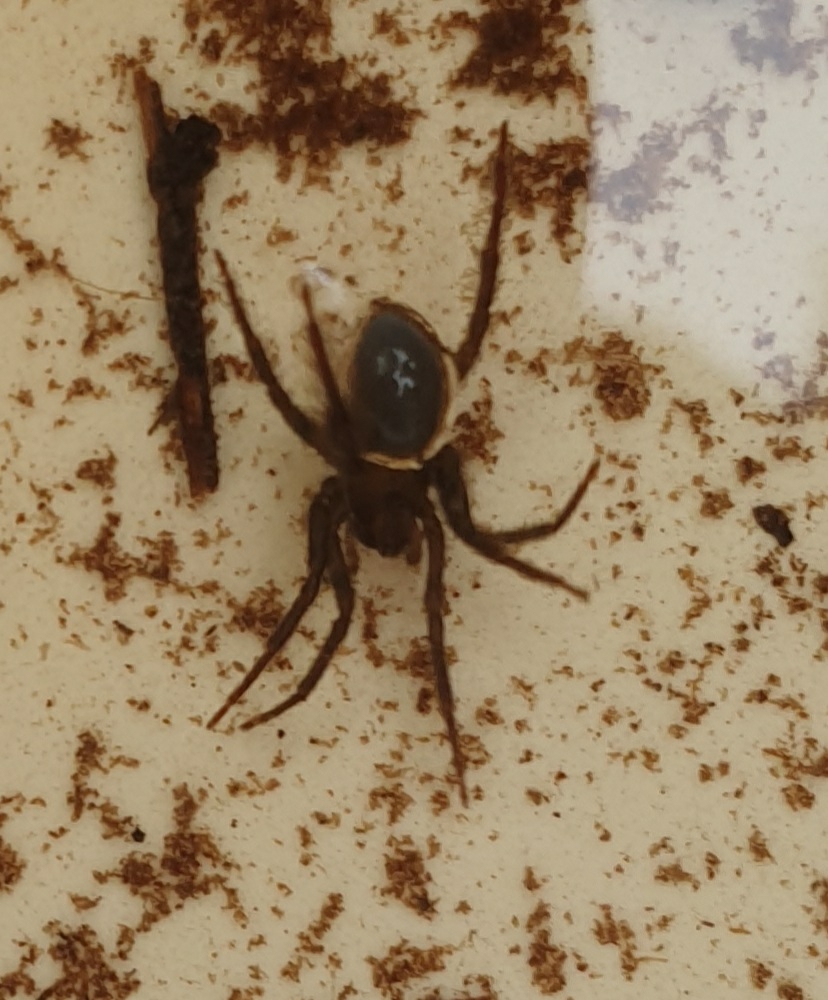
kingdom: Animalia
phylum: Arthropoda
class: Arachnida
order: Araneae
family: Dictynidae
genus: Argyroneta
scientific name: Argyroneta aquatica
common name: Vandedderkop
